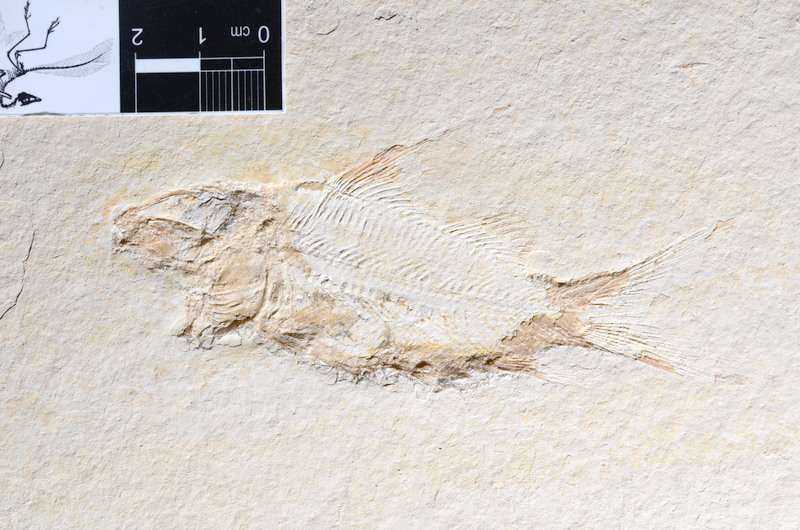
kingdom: Animalia
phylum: Chordata
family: Macrosemiidae
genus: Propterus
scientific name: Propterus microstomus
